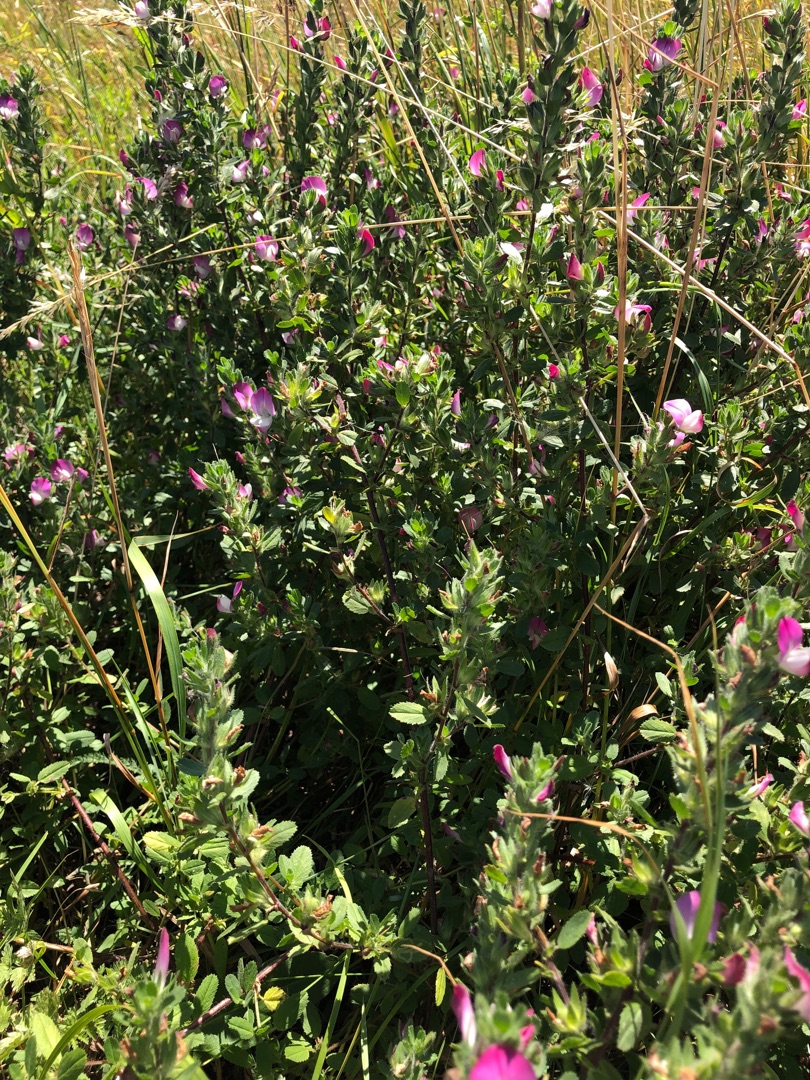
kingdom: Plantae
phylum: Tracheophyta
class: Magnoliopsida
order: Fabales
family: Fabaceae
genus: Ononis
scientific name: Ononis spinosa
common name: Mark-krageklo
